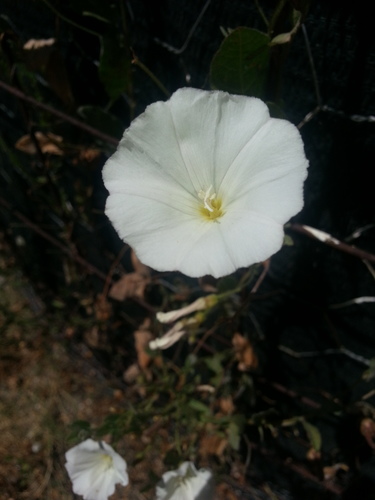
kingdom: Plantae
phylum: Tracheophyta
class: Magnoliopsida
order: Solanales
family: Convolvulaceae
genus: Convolvulus
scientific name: Convolvulus arvensis
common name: Field bindweed
